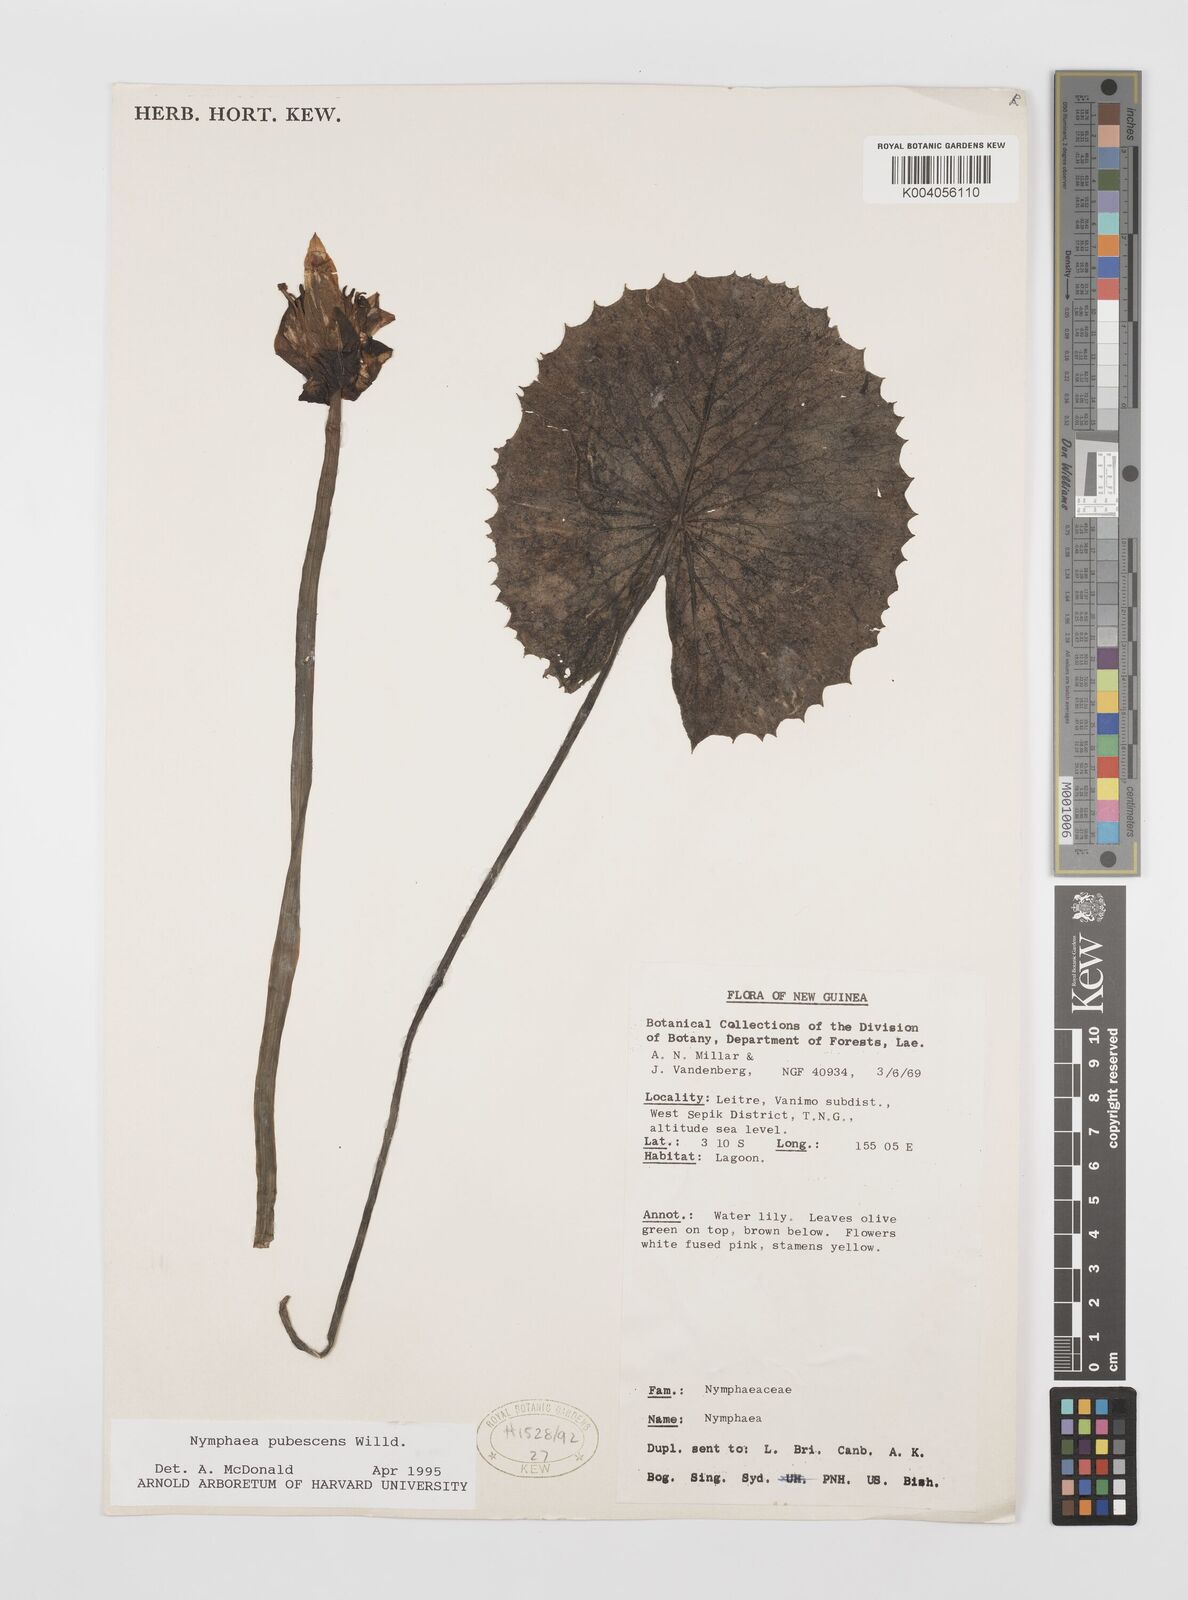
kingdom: Plantae
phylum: Tracheophyta
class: Magnoliopsida
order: Nymphaeales
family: Nymphaeaceae
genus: Nymphaea
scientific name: Nymphaea pubescens
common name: Hairy water lily
